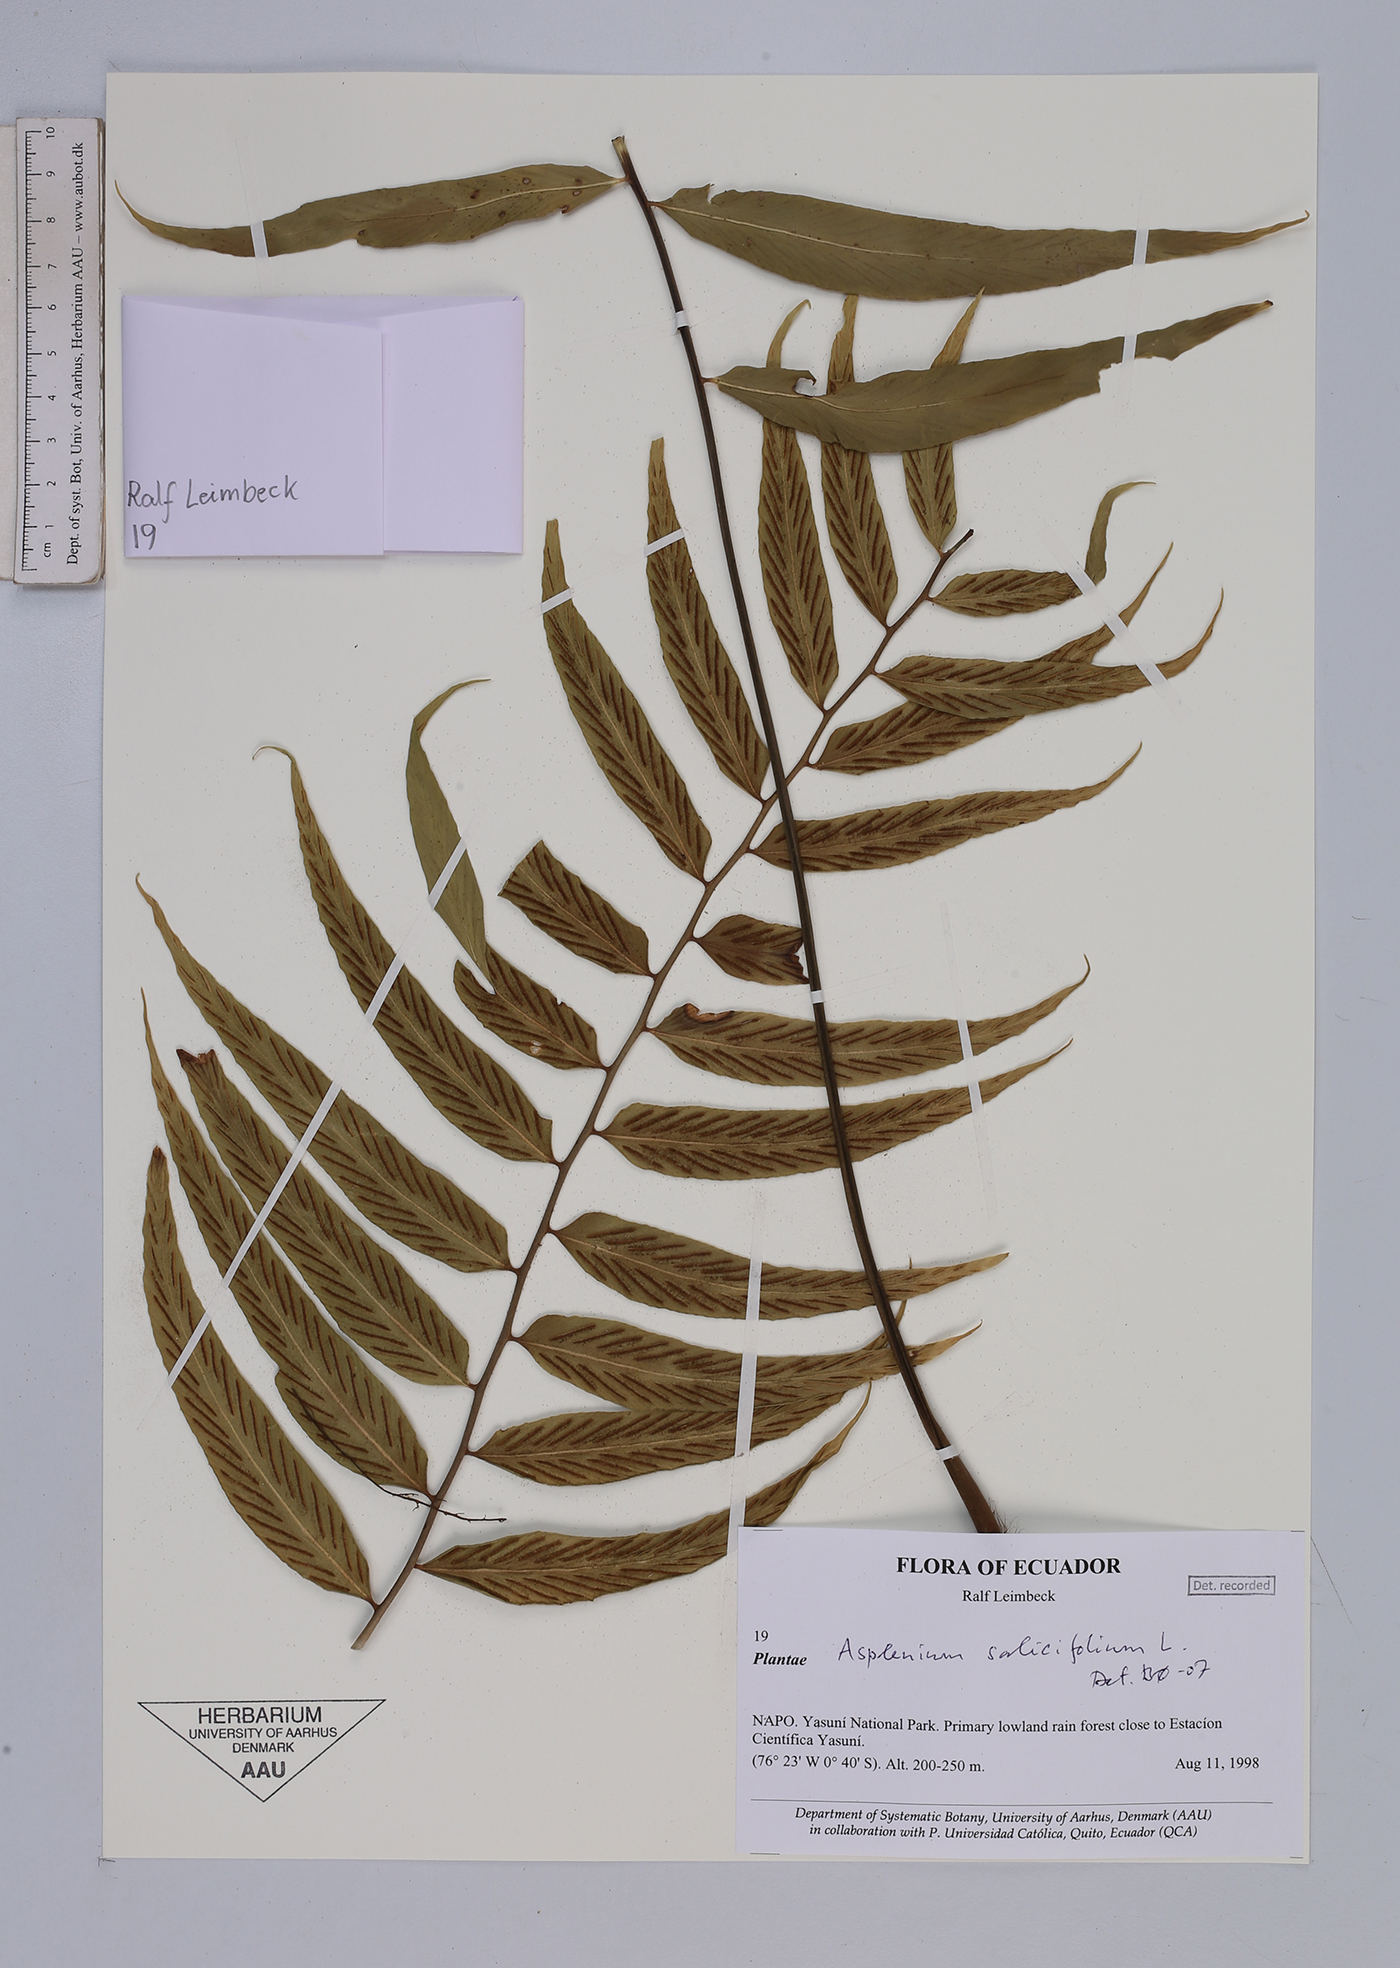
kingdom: Plantae
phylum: Tracheophyta
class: Polypodiopsida
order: Polypodiales
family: Aspleniaceae
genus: Asplenium
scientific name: Asplenium salicifolium
